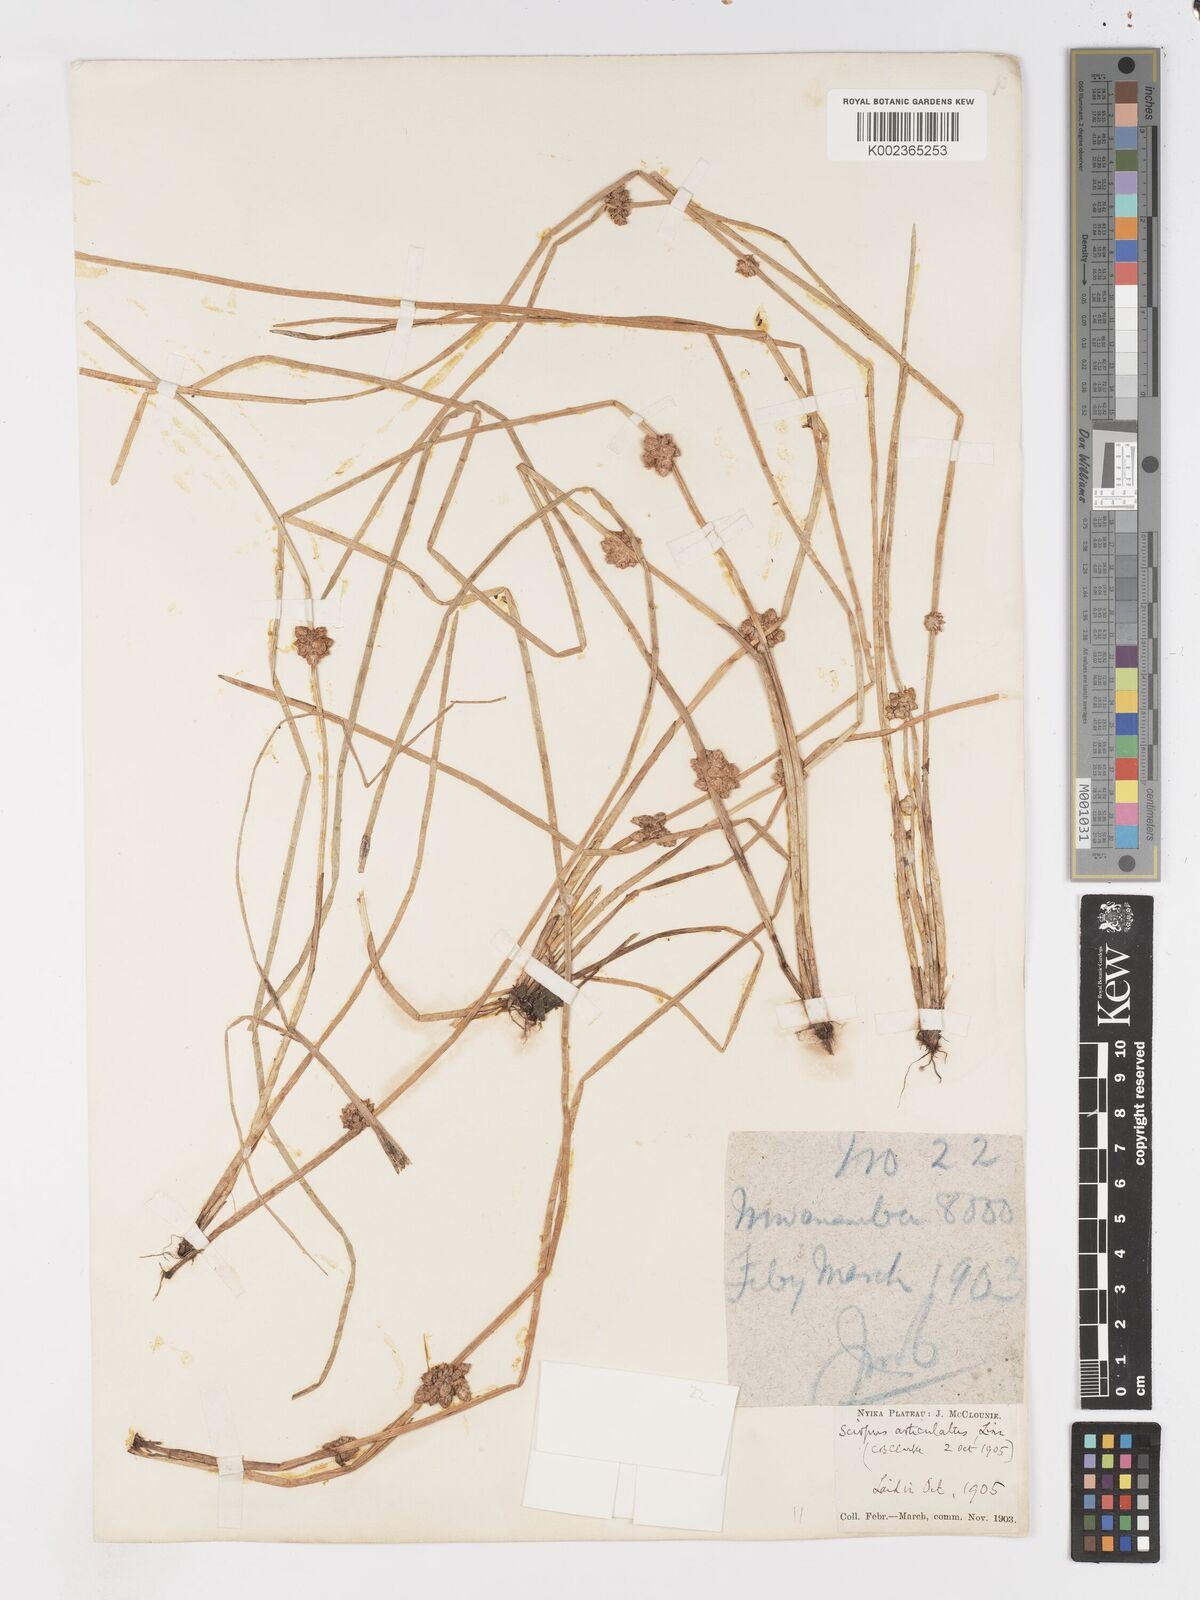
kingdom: Plantae
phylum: Tracheophyta
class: Liliopsida
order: Poales
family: Cyperaceae
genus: Schoenoplectiella
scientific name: Schoenoplectiella senegalensis
